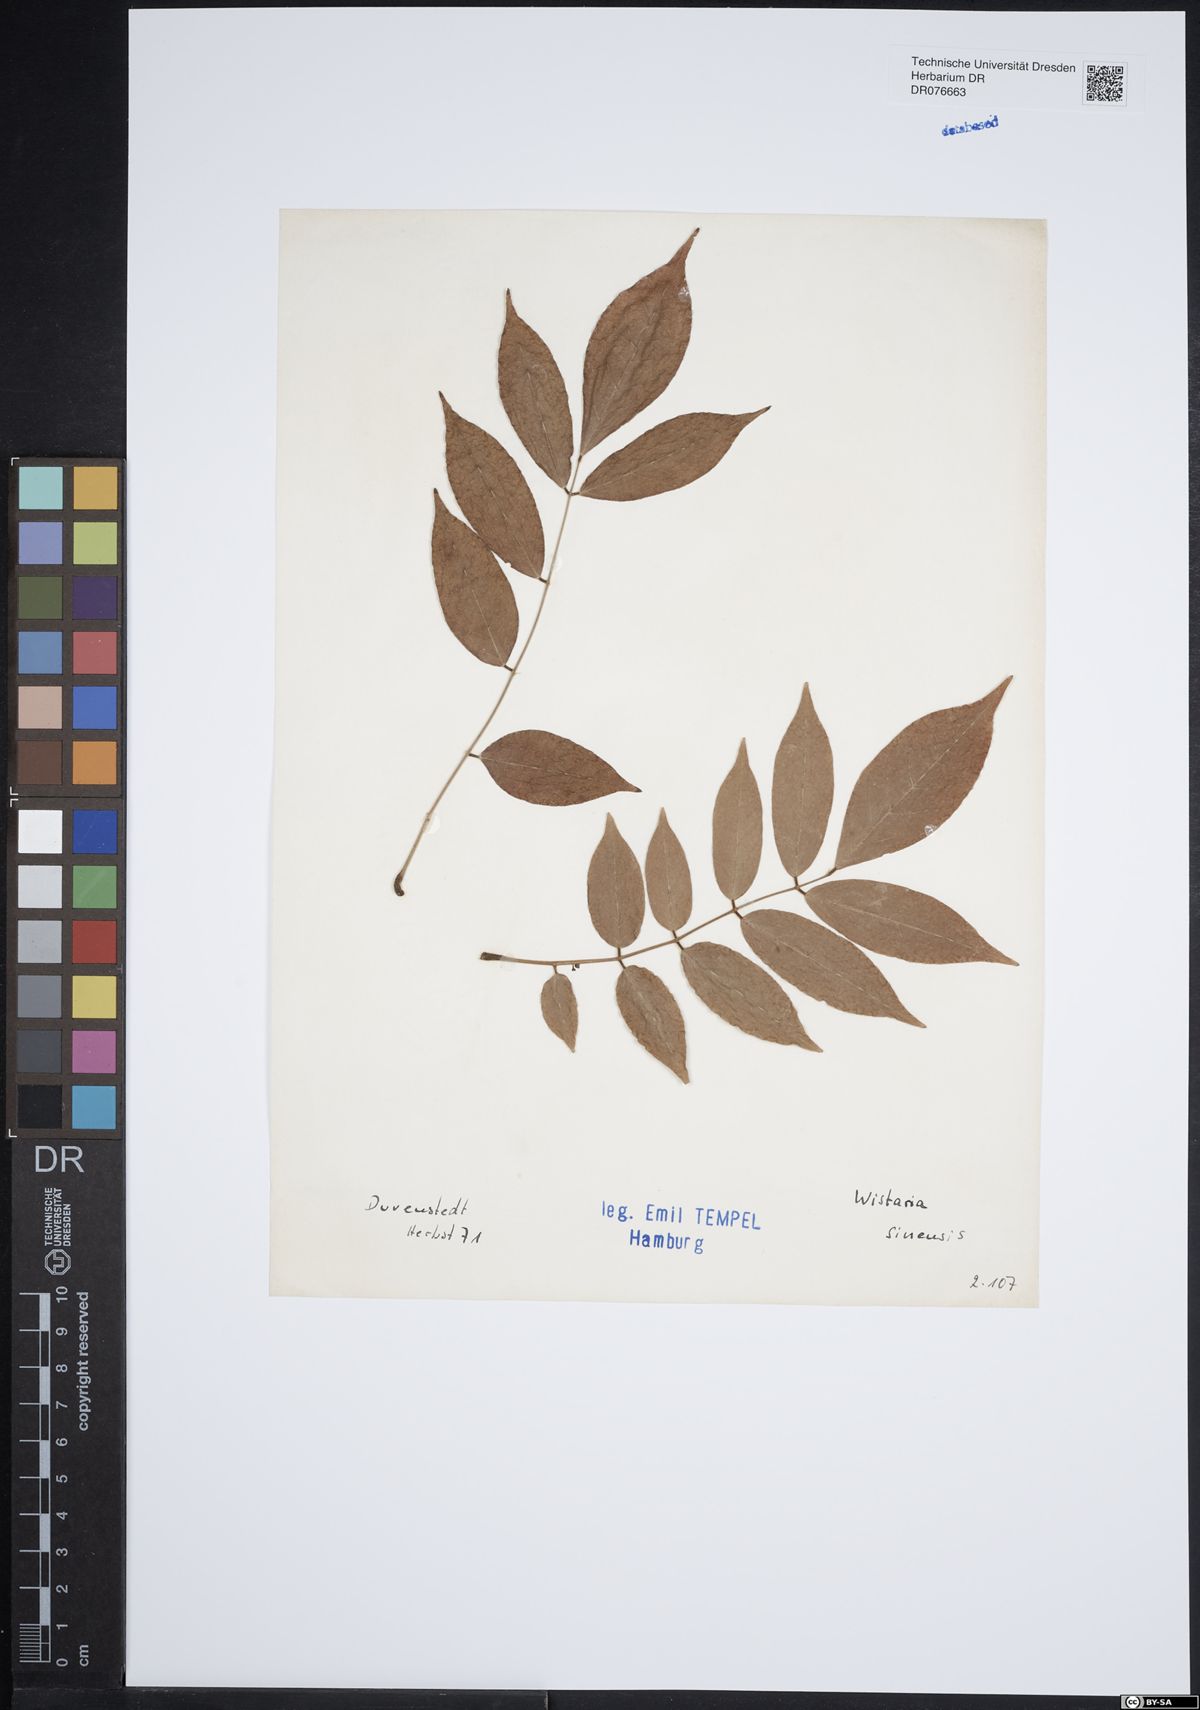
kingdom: Plantae
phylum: Tracheophyta
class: Magnoliopsida
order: Fabales
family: Fabaceae
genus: Wisteria
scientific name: Wisteria sinensis
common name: Chinese wisteria
